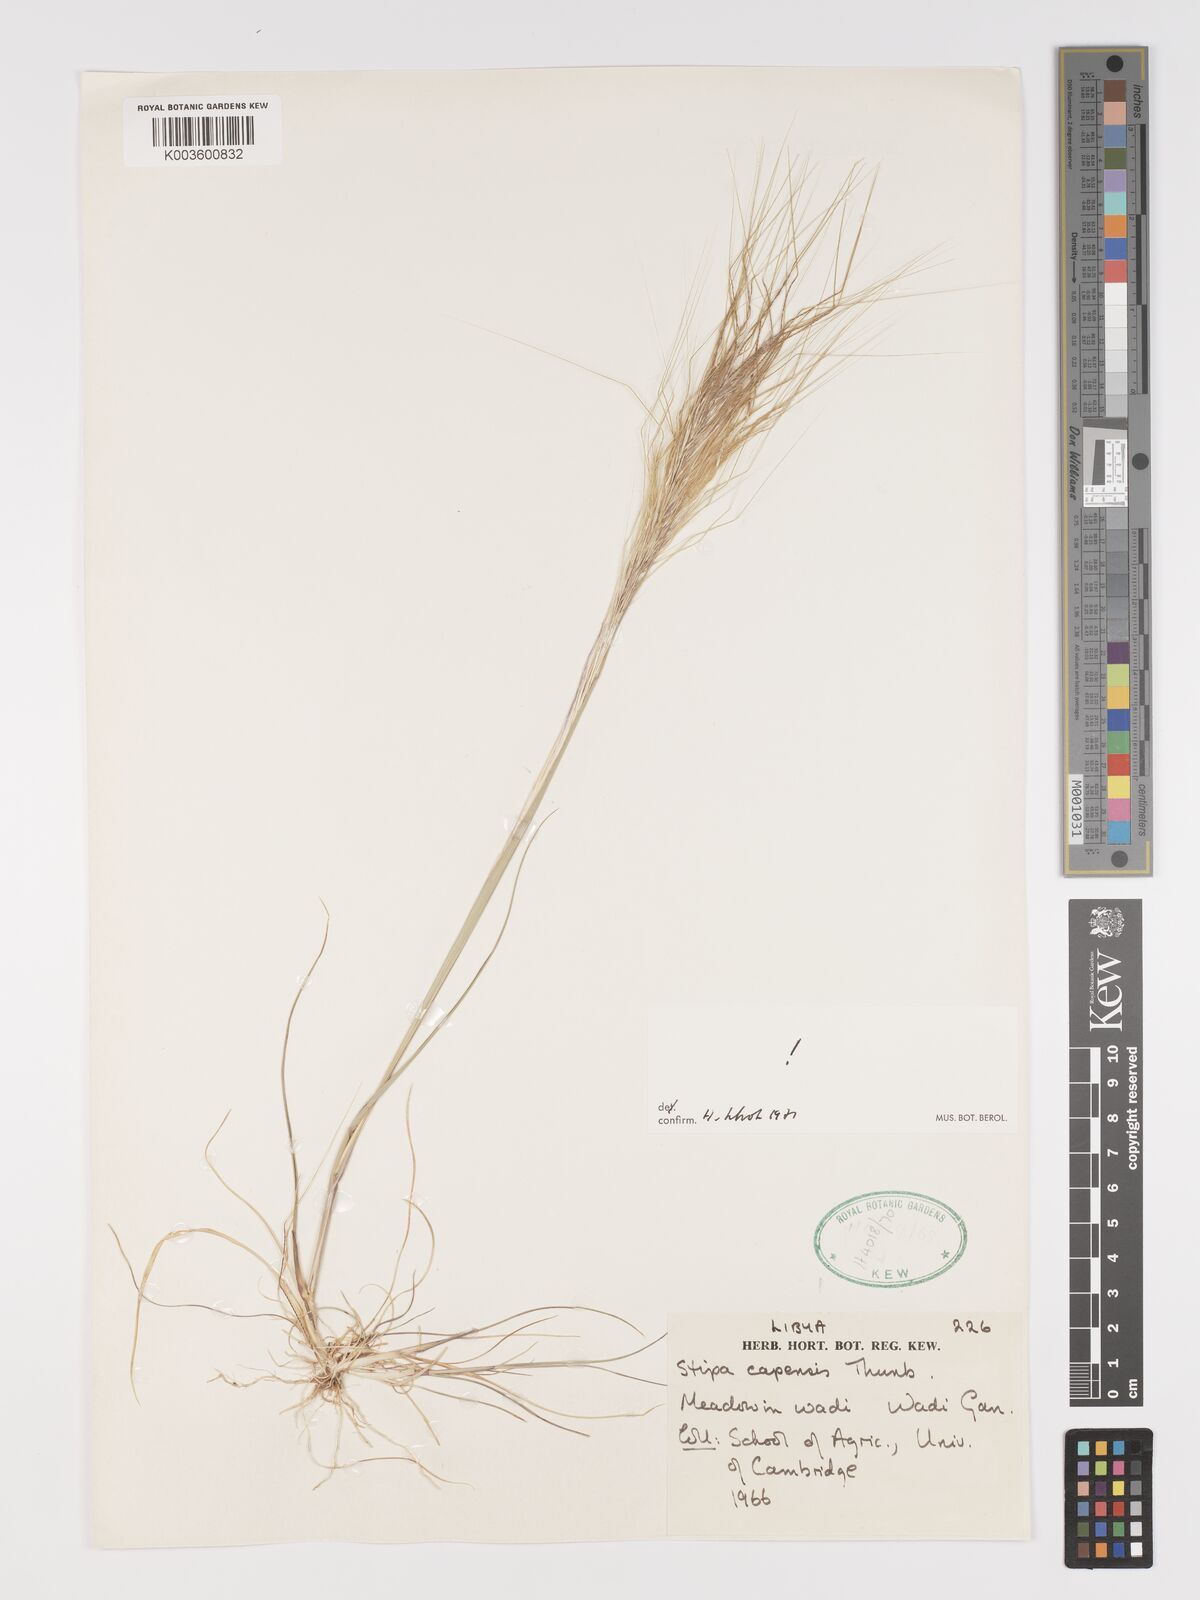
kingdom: Plantae
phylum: Tracheophyta
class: Liliopsida
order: Poales
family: Poaceae
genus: Stipellula
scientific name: Stipellula capensis
